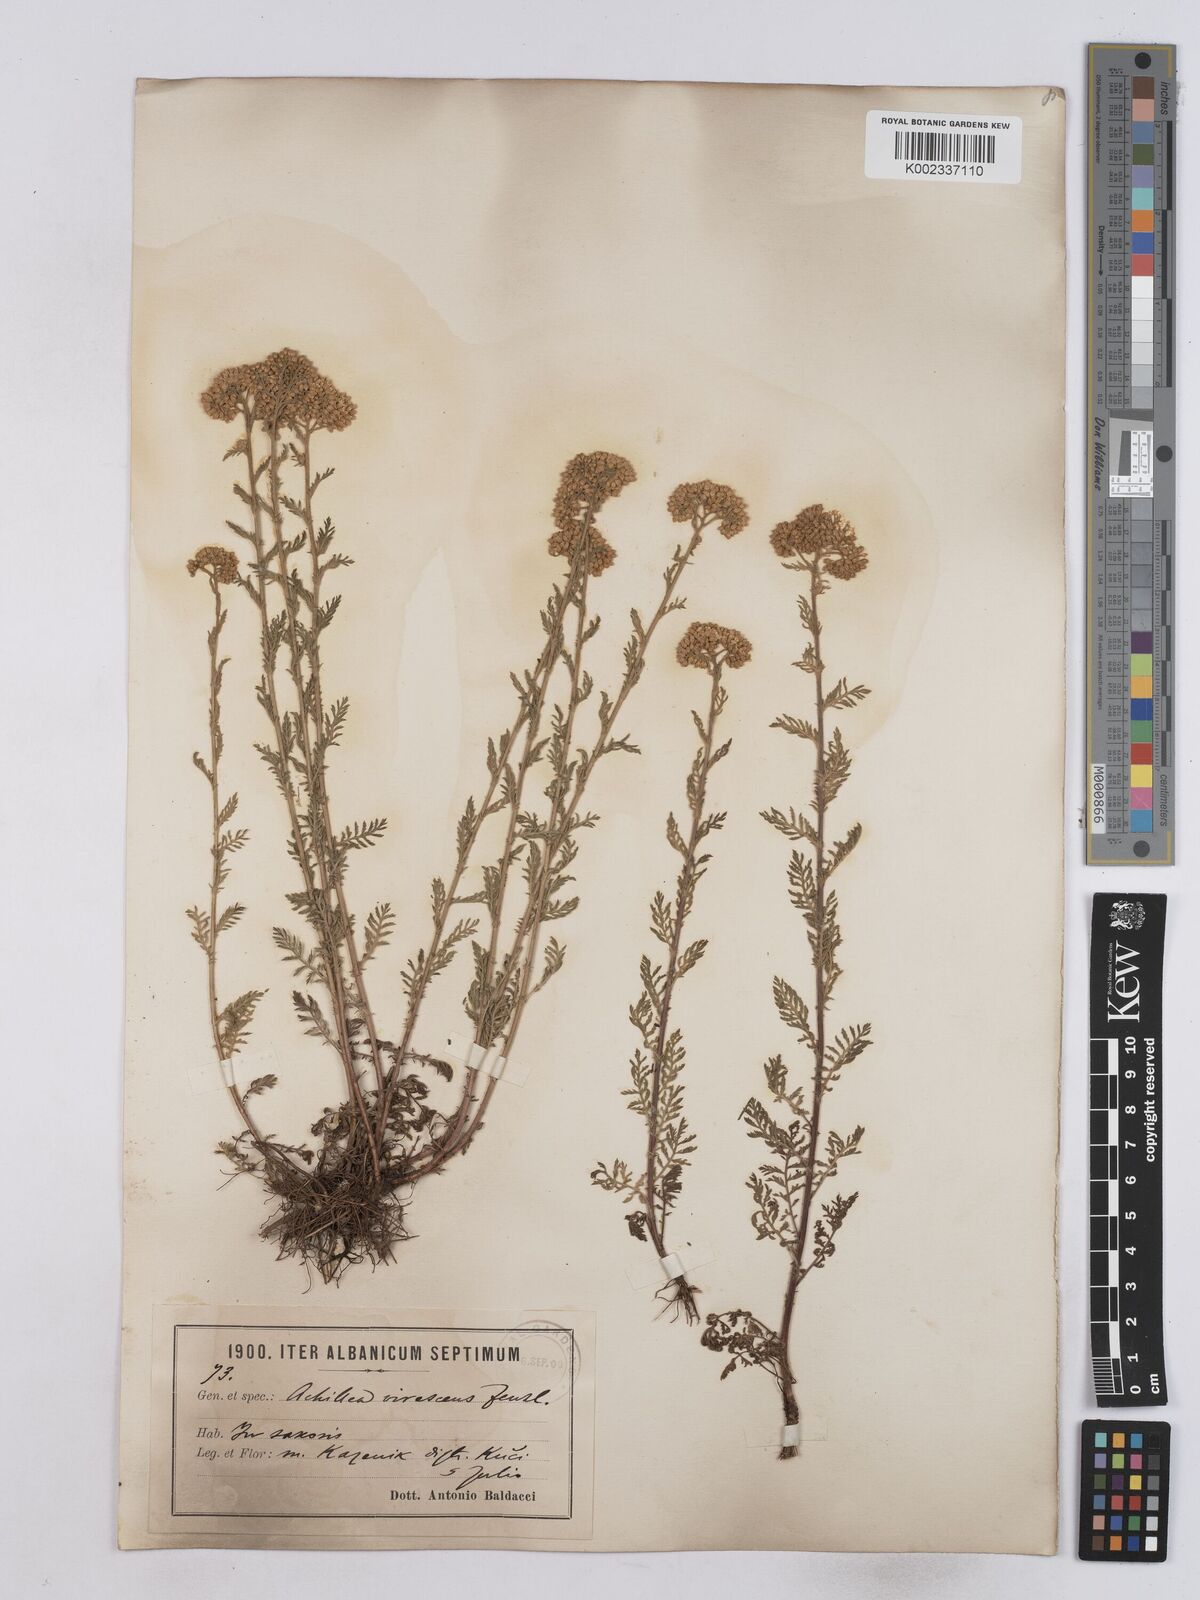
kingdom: Plantae
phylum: Tracheophyta
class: Magnoliopsida
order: Asterales
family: Asteraceae
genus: Achillea
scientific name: Achillea virescens
